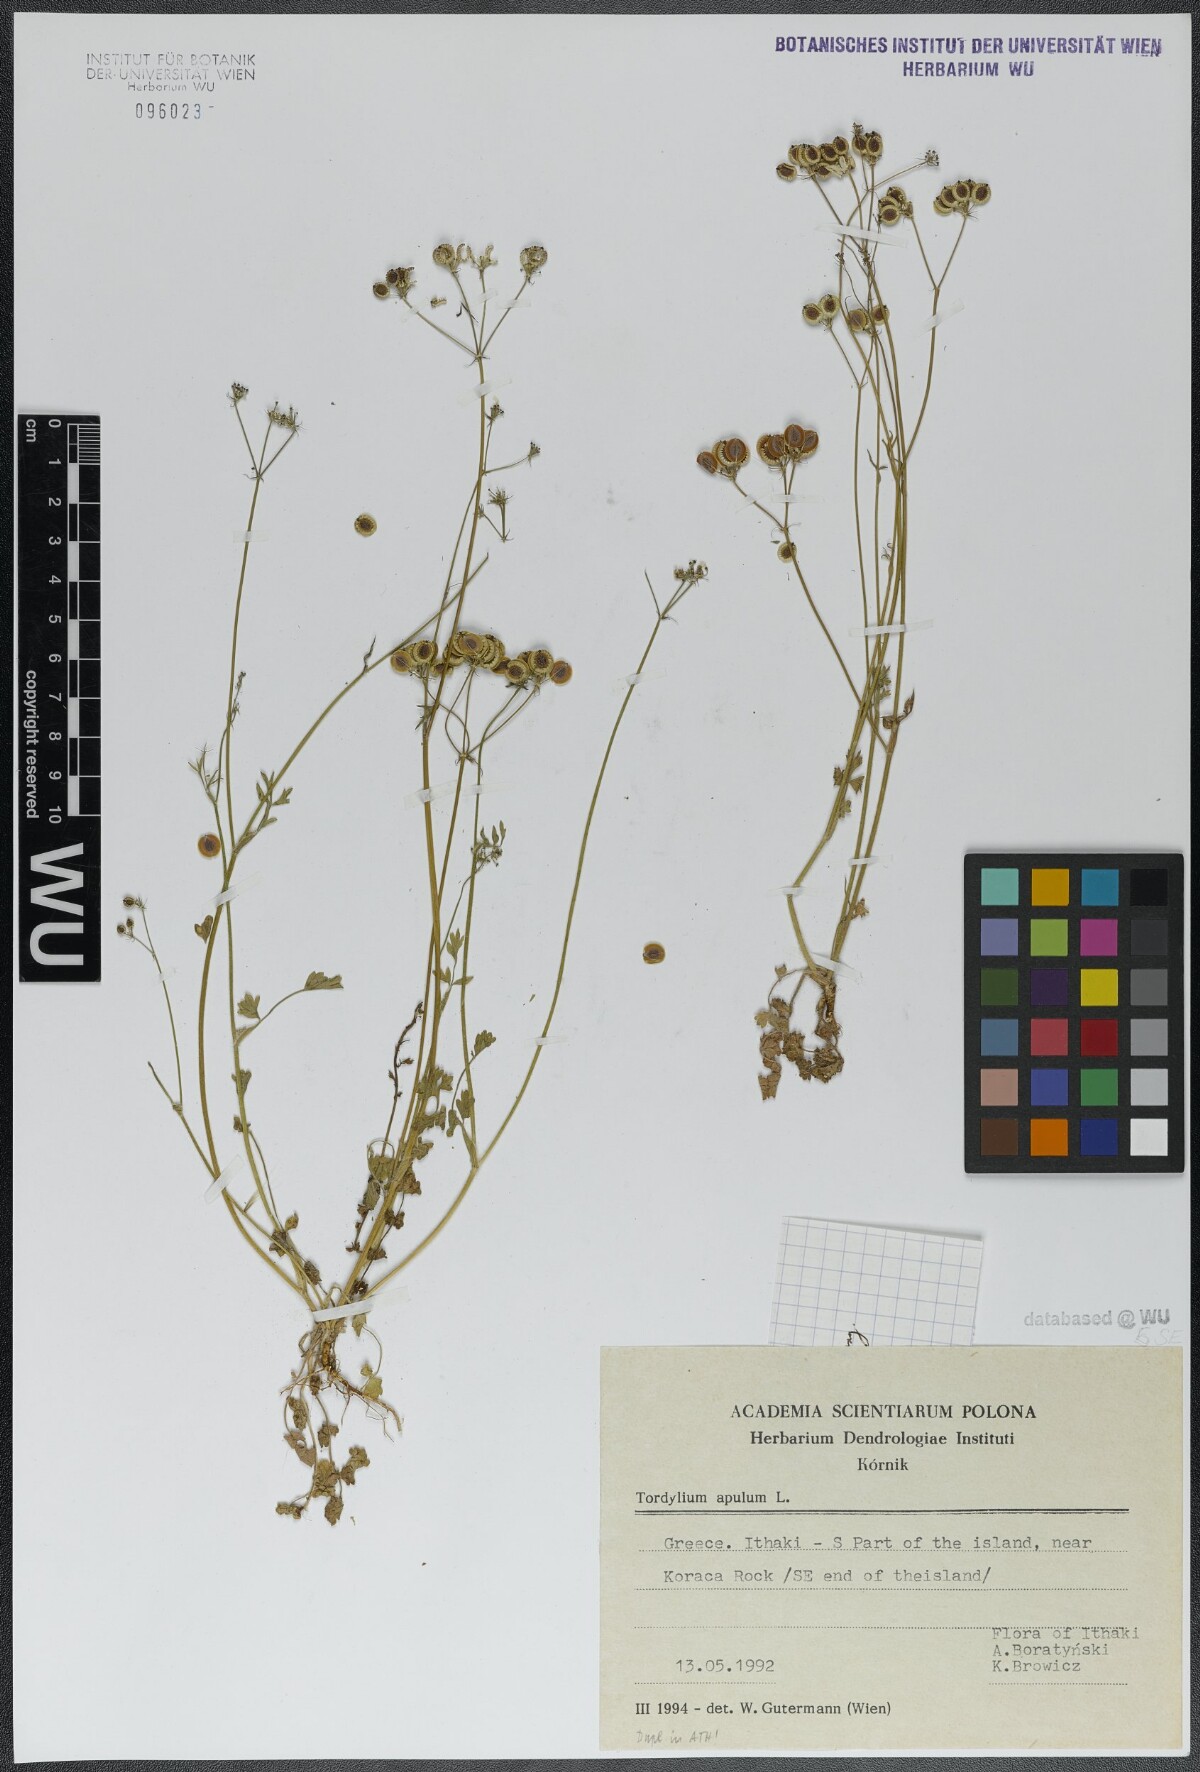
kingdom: Plantae
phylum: Tracheophyta
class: Magnoliopsida
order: Apiales
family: Apiaceae
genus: Tordylium
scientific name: Tordylium apulum
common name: Mediterranean hartwort
